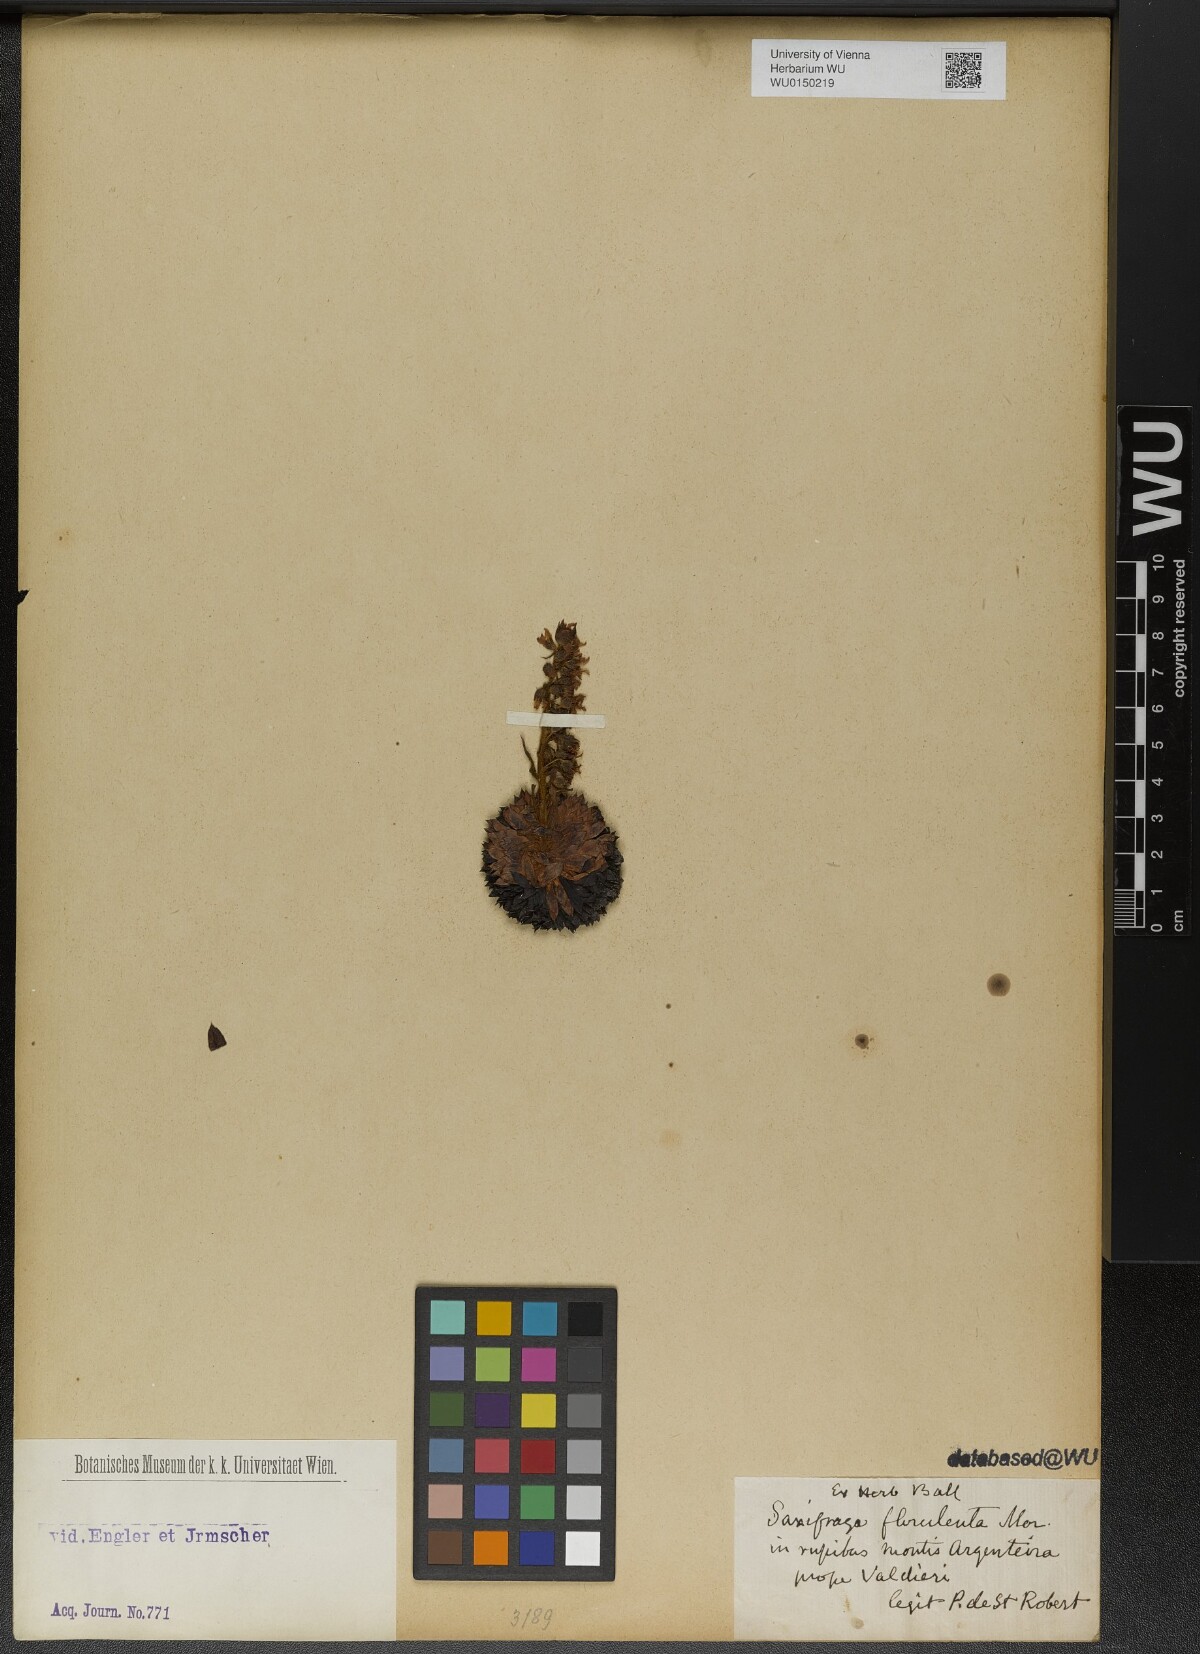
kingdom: Plantae
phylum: Tracheophyta
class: Magnoliopsida
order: Saxifragales
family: Saxifragaceae
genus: Saxifraga
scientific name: Saxifraga florulenta
